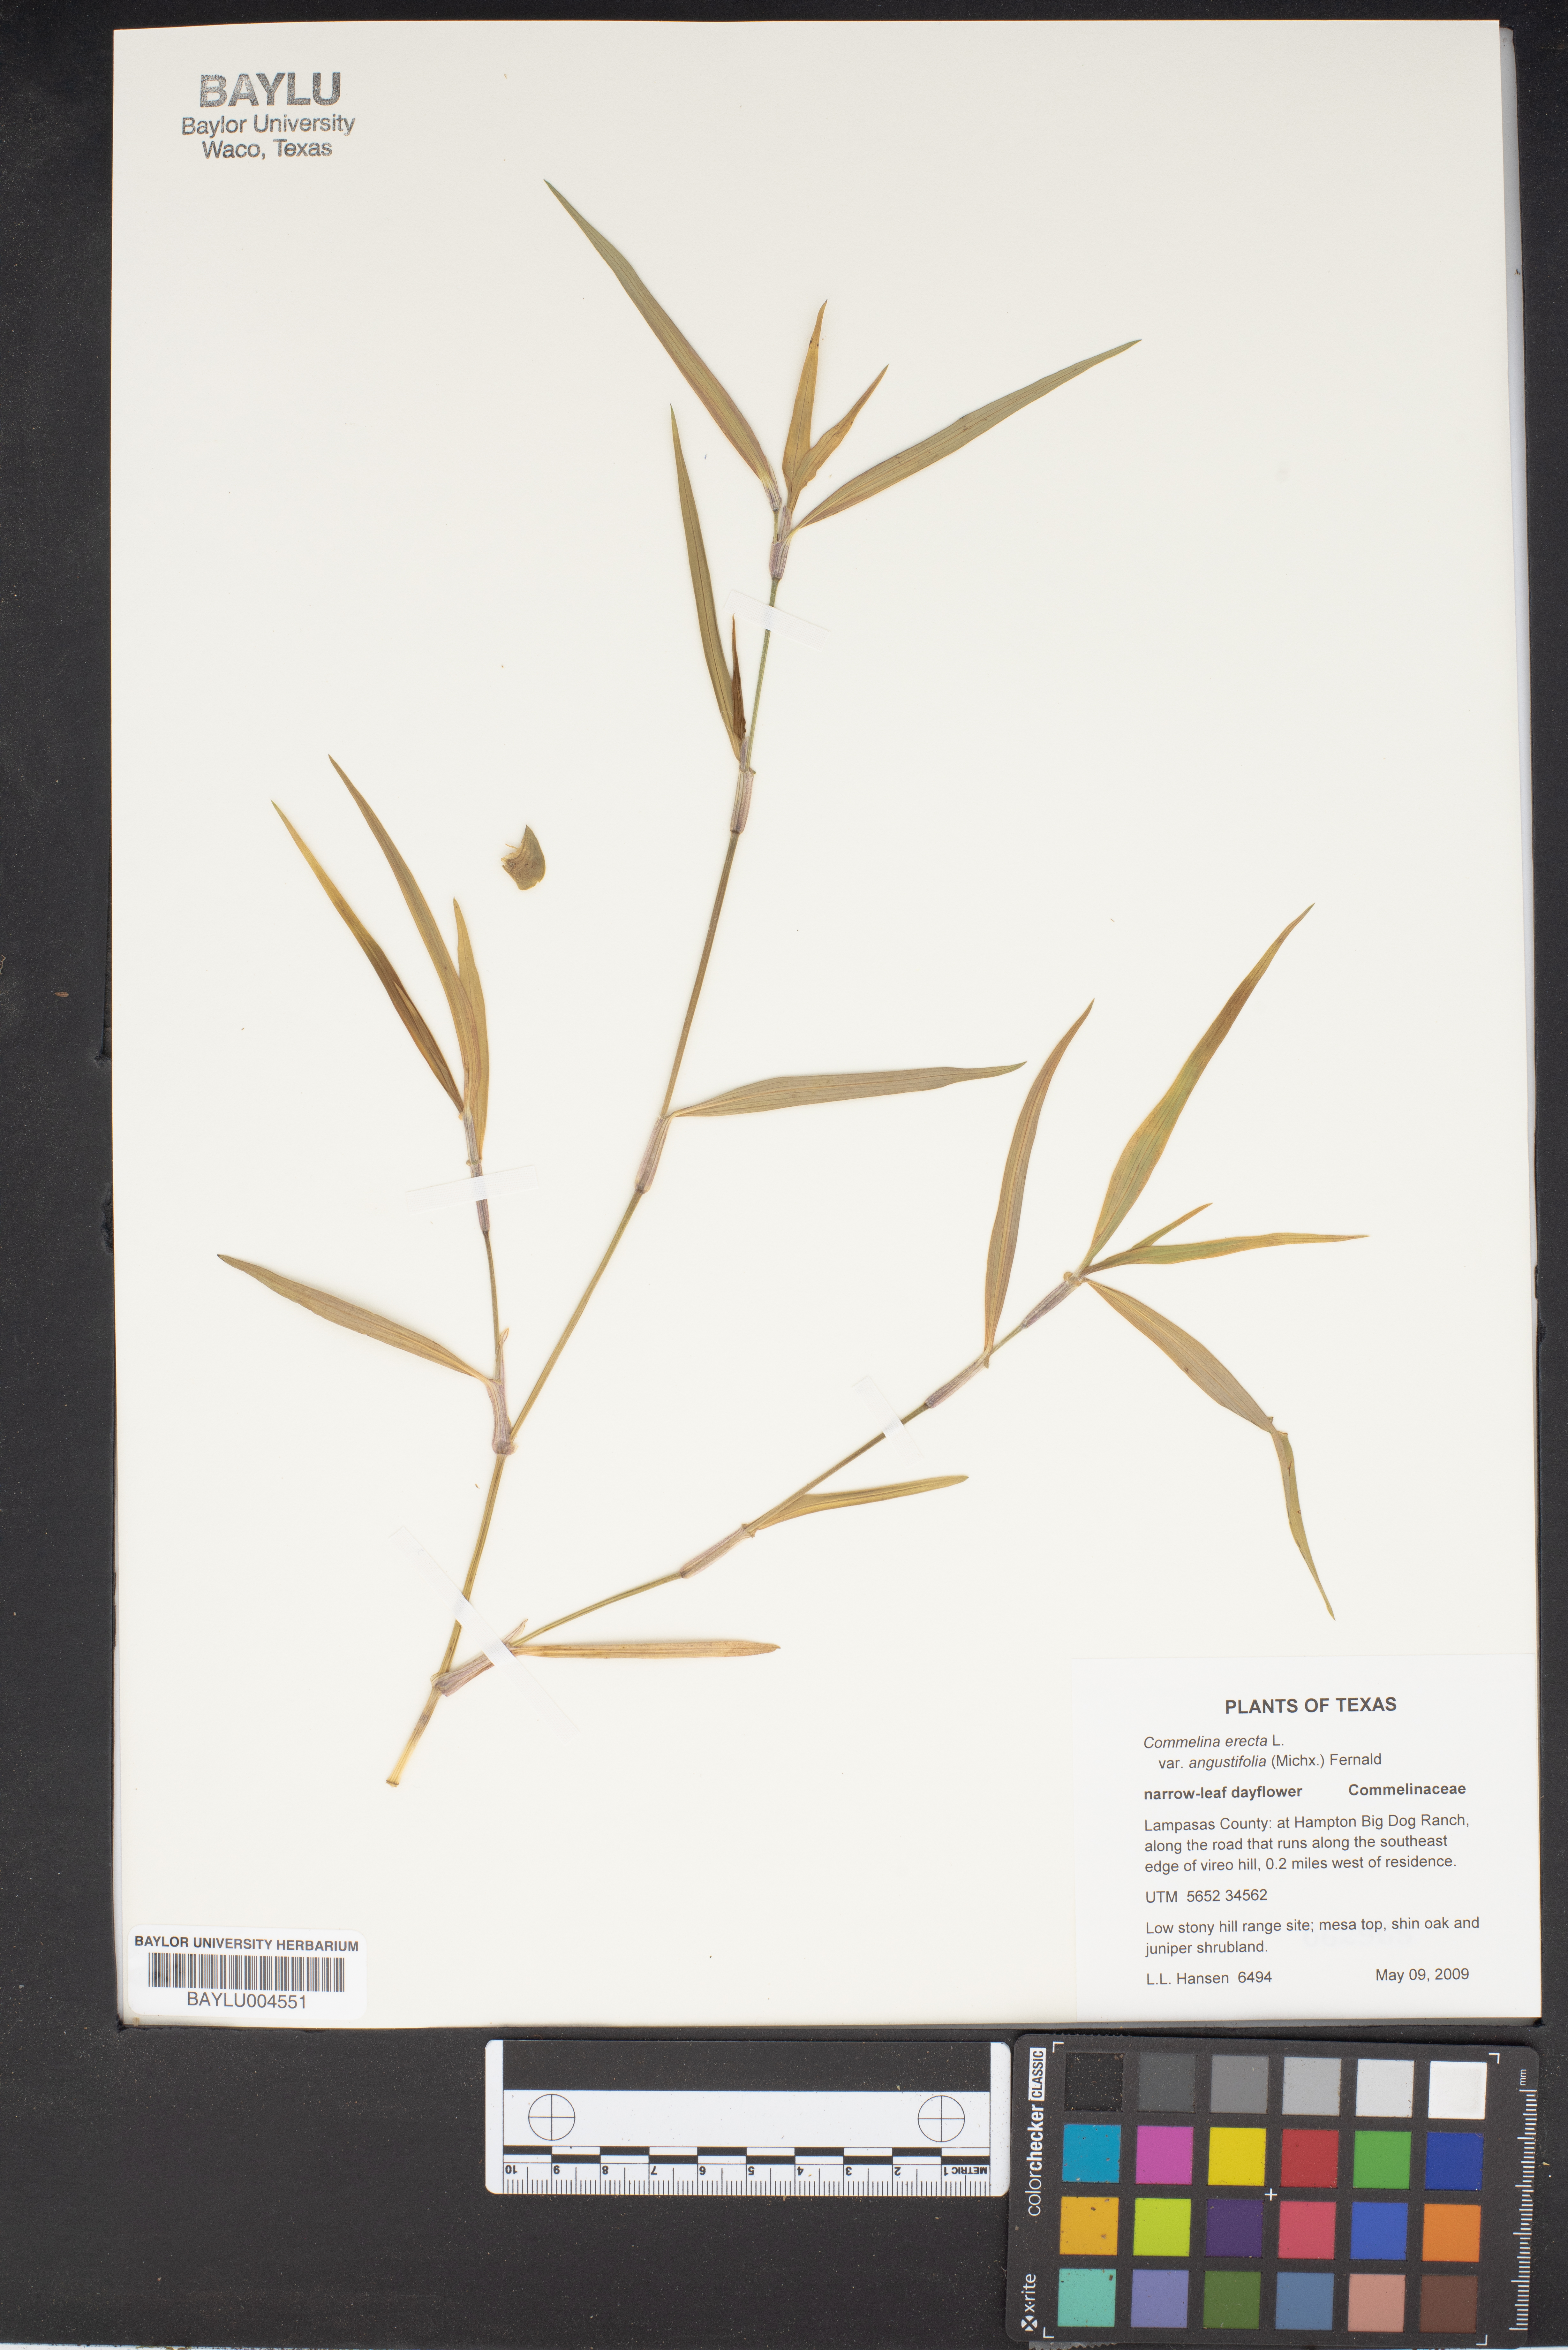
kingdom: Plantae
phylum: Tracheophyta
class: Liliopsida
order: Commelinales
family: Commelinaceae
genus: Commelina
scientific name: Commelina erecta
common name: Blousel blommetjie
